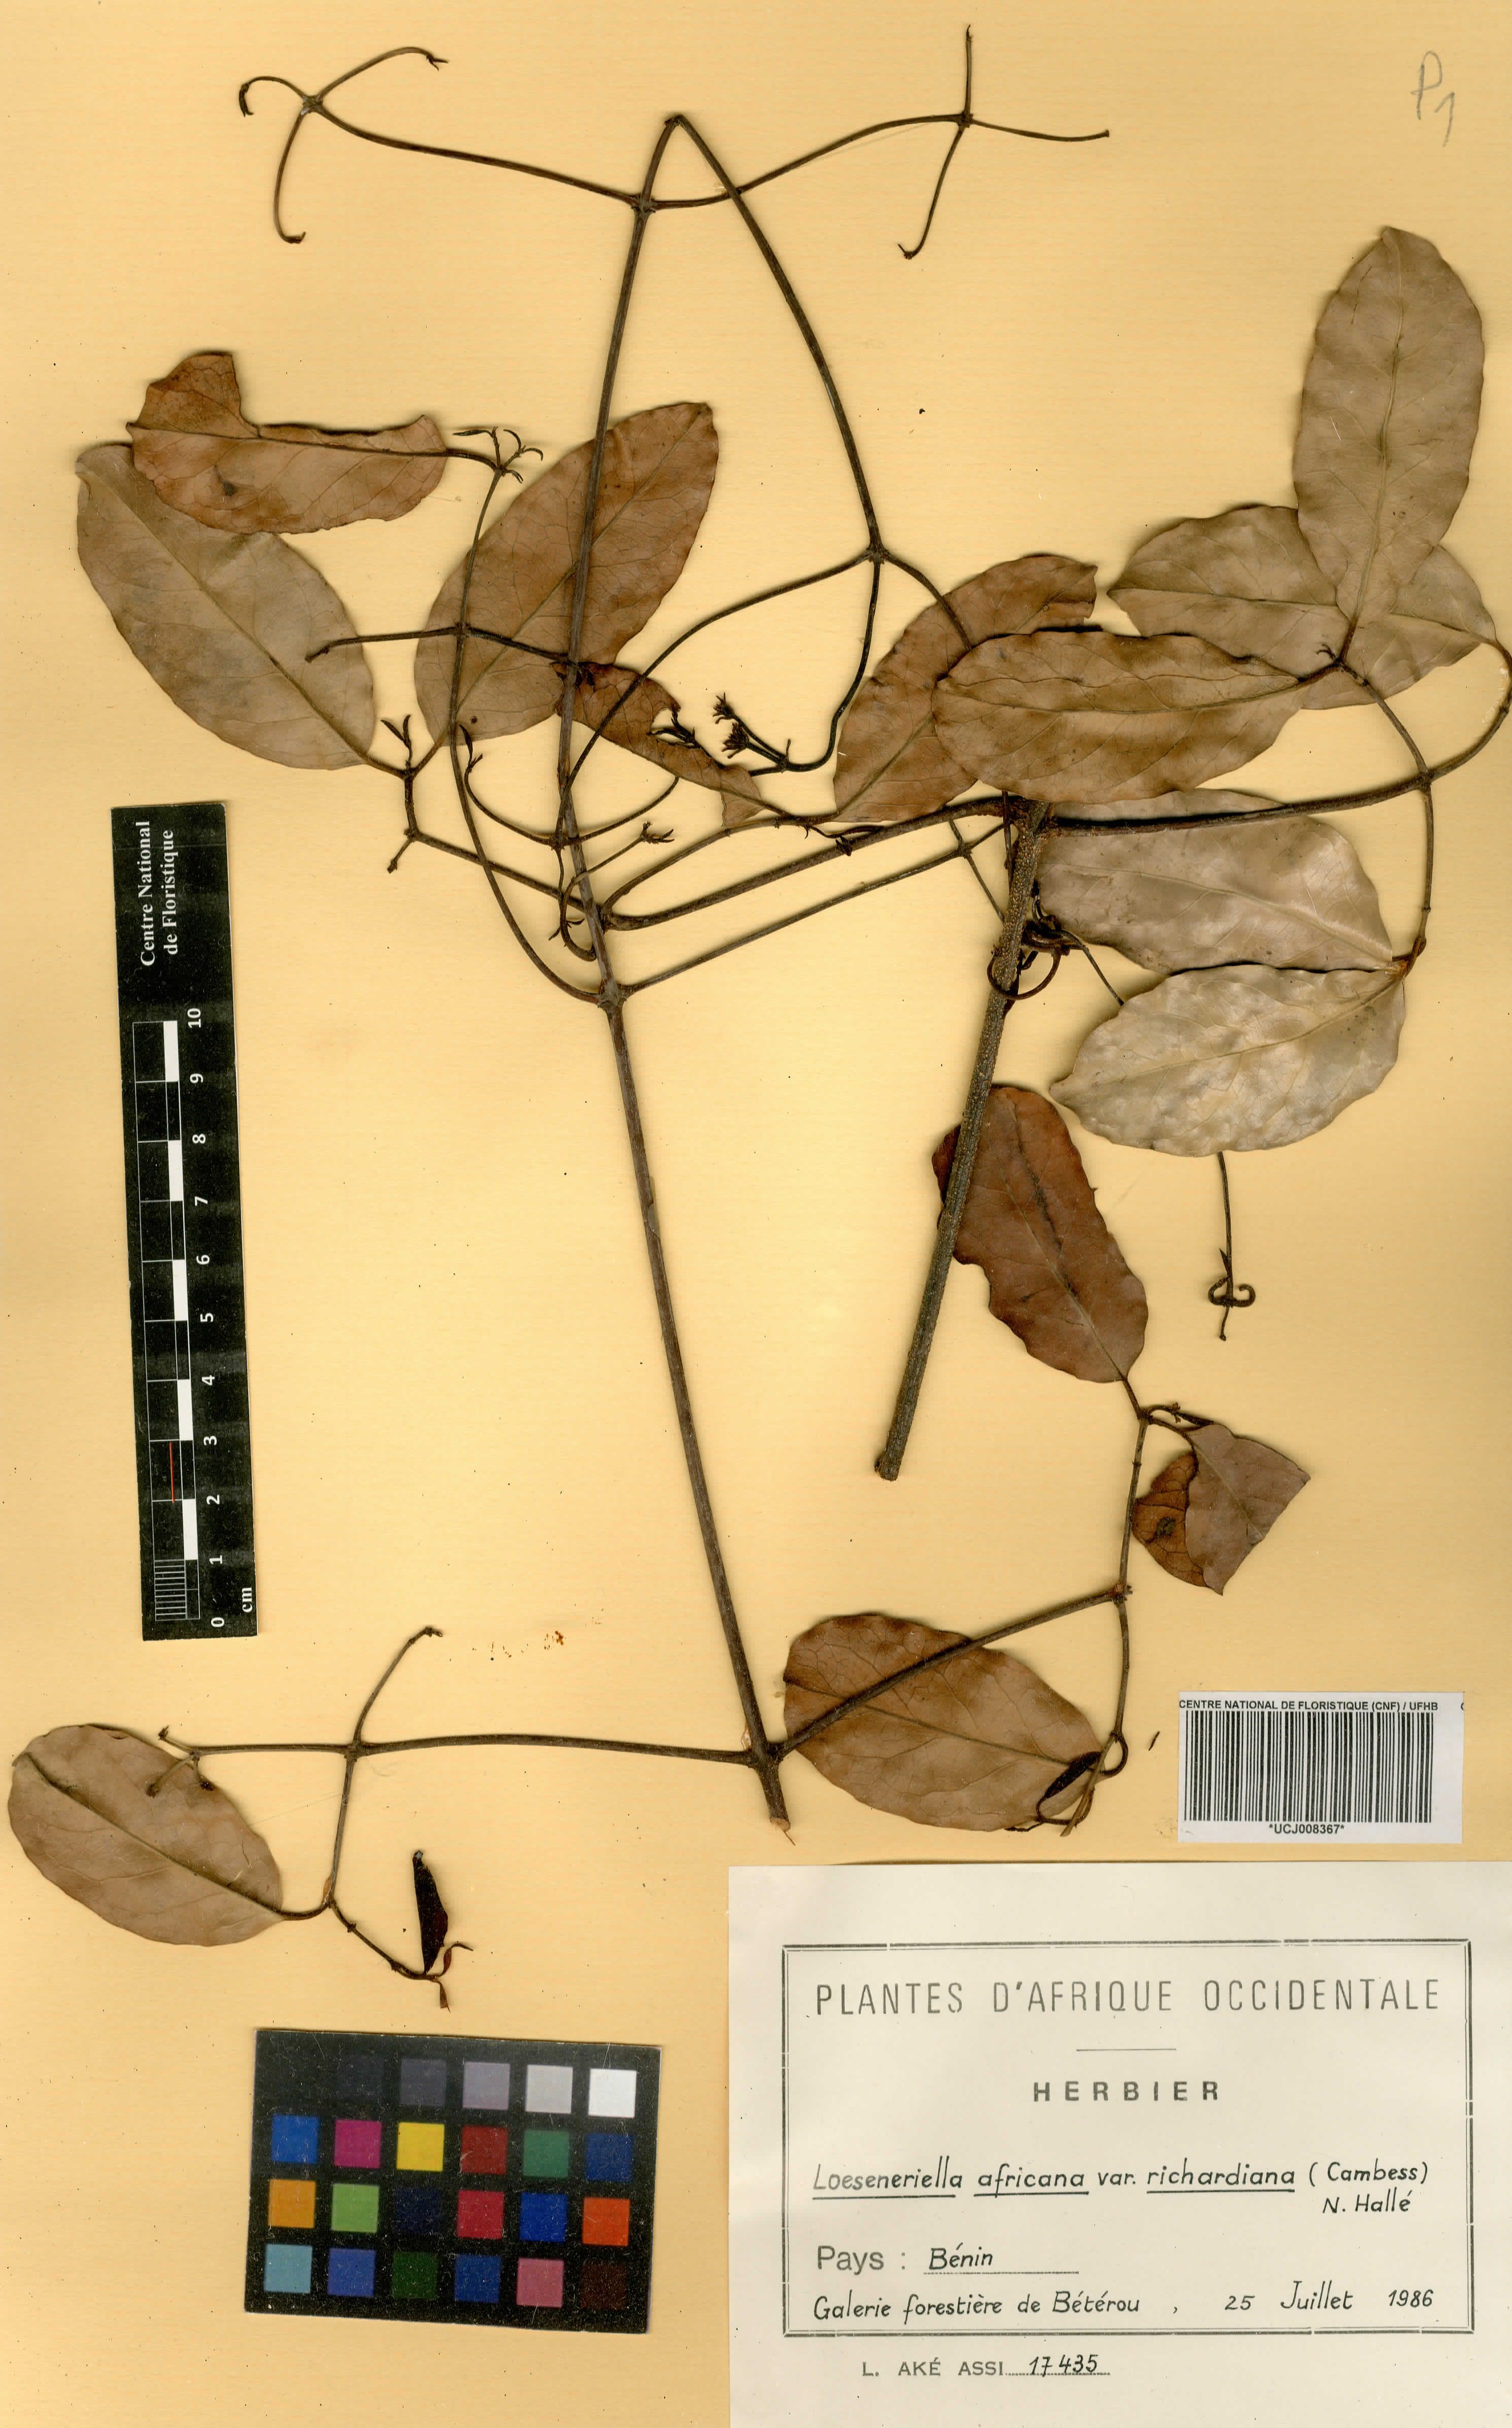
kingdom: Plantae
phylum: Tracheophyta
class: Magnoliopsida
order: Celastrales
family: Celastraceae
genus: Loeseneriella
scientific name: Loeseneriella africana
